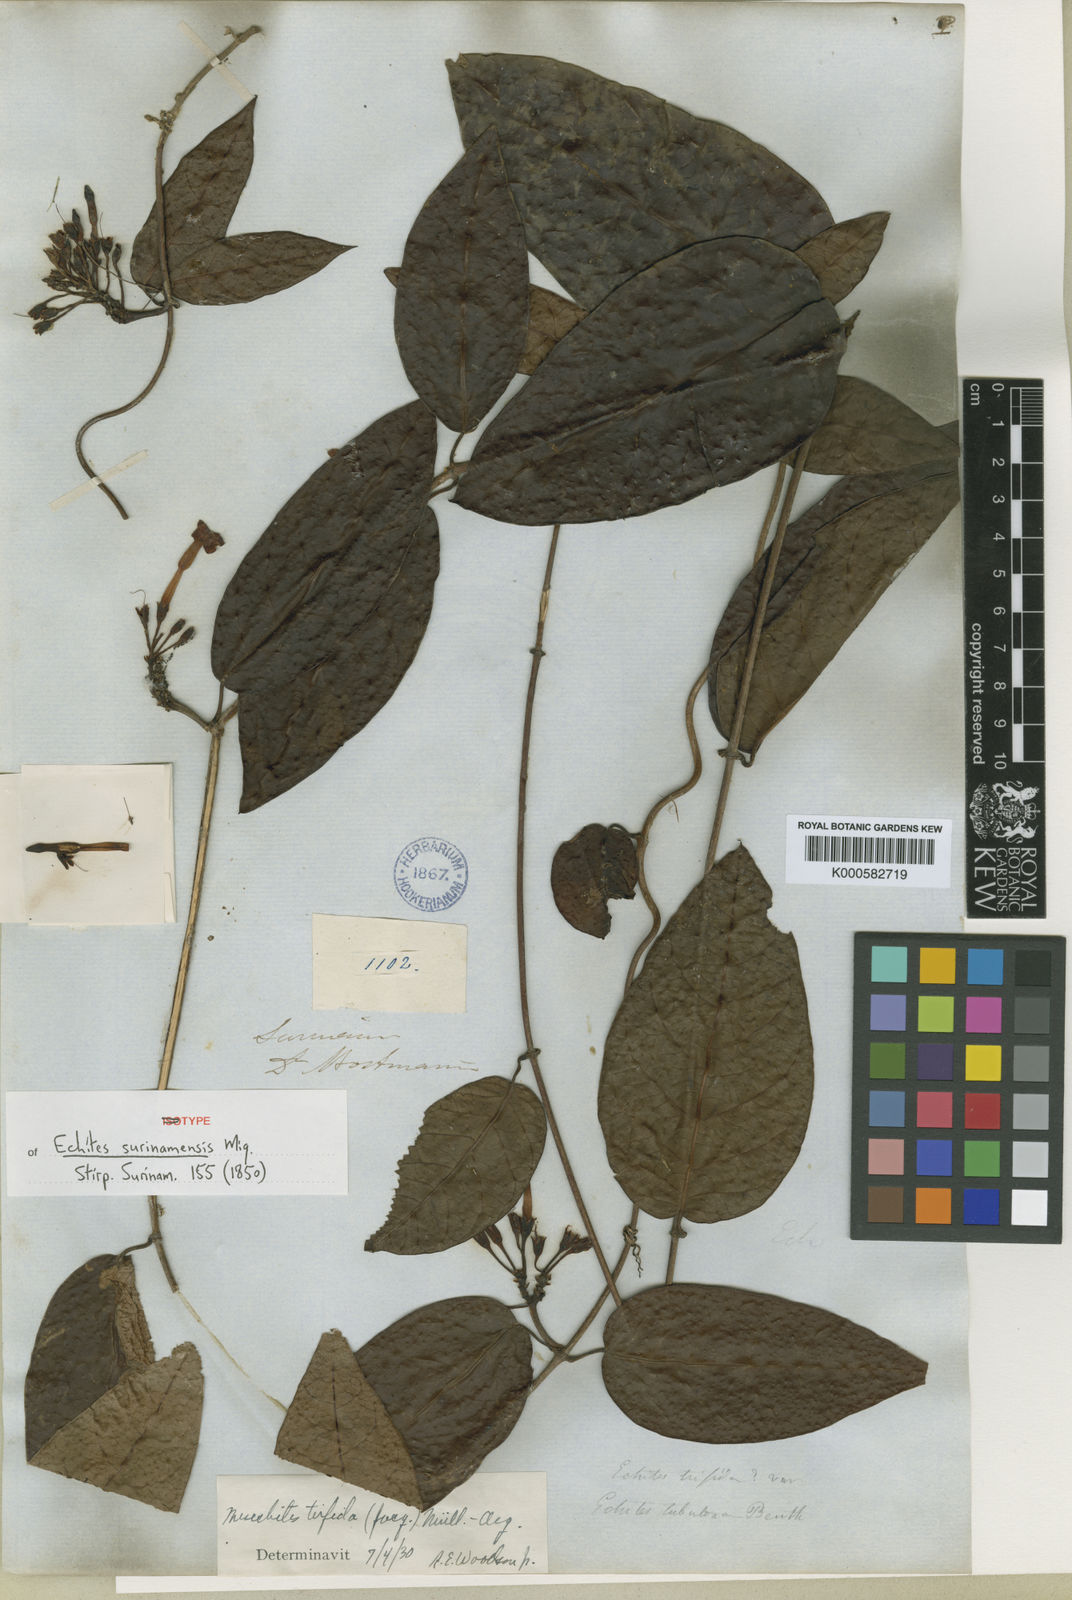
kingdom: Plantae
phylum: Tracheophyta
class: Magnoliopsida
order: Gentianales
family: Apocynaceae
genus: Mesechites
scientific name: Mesechites
